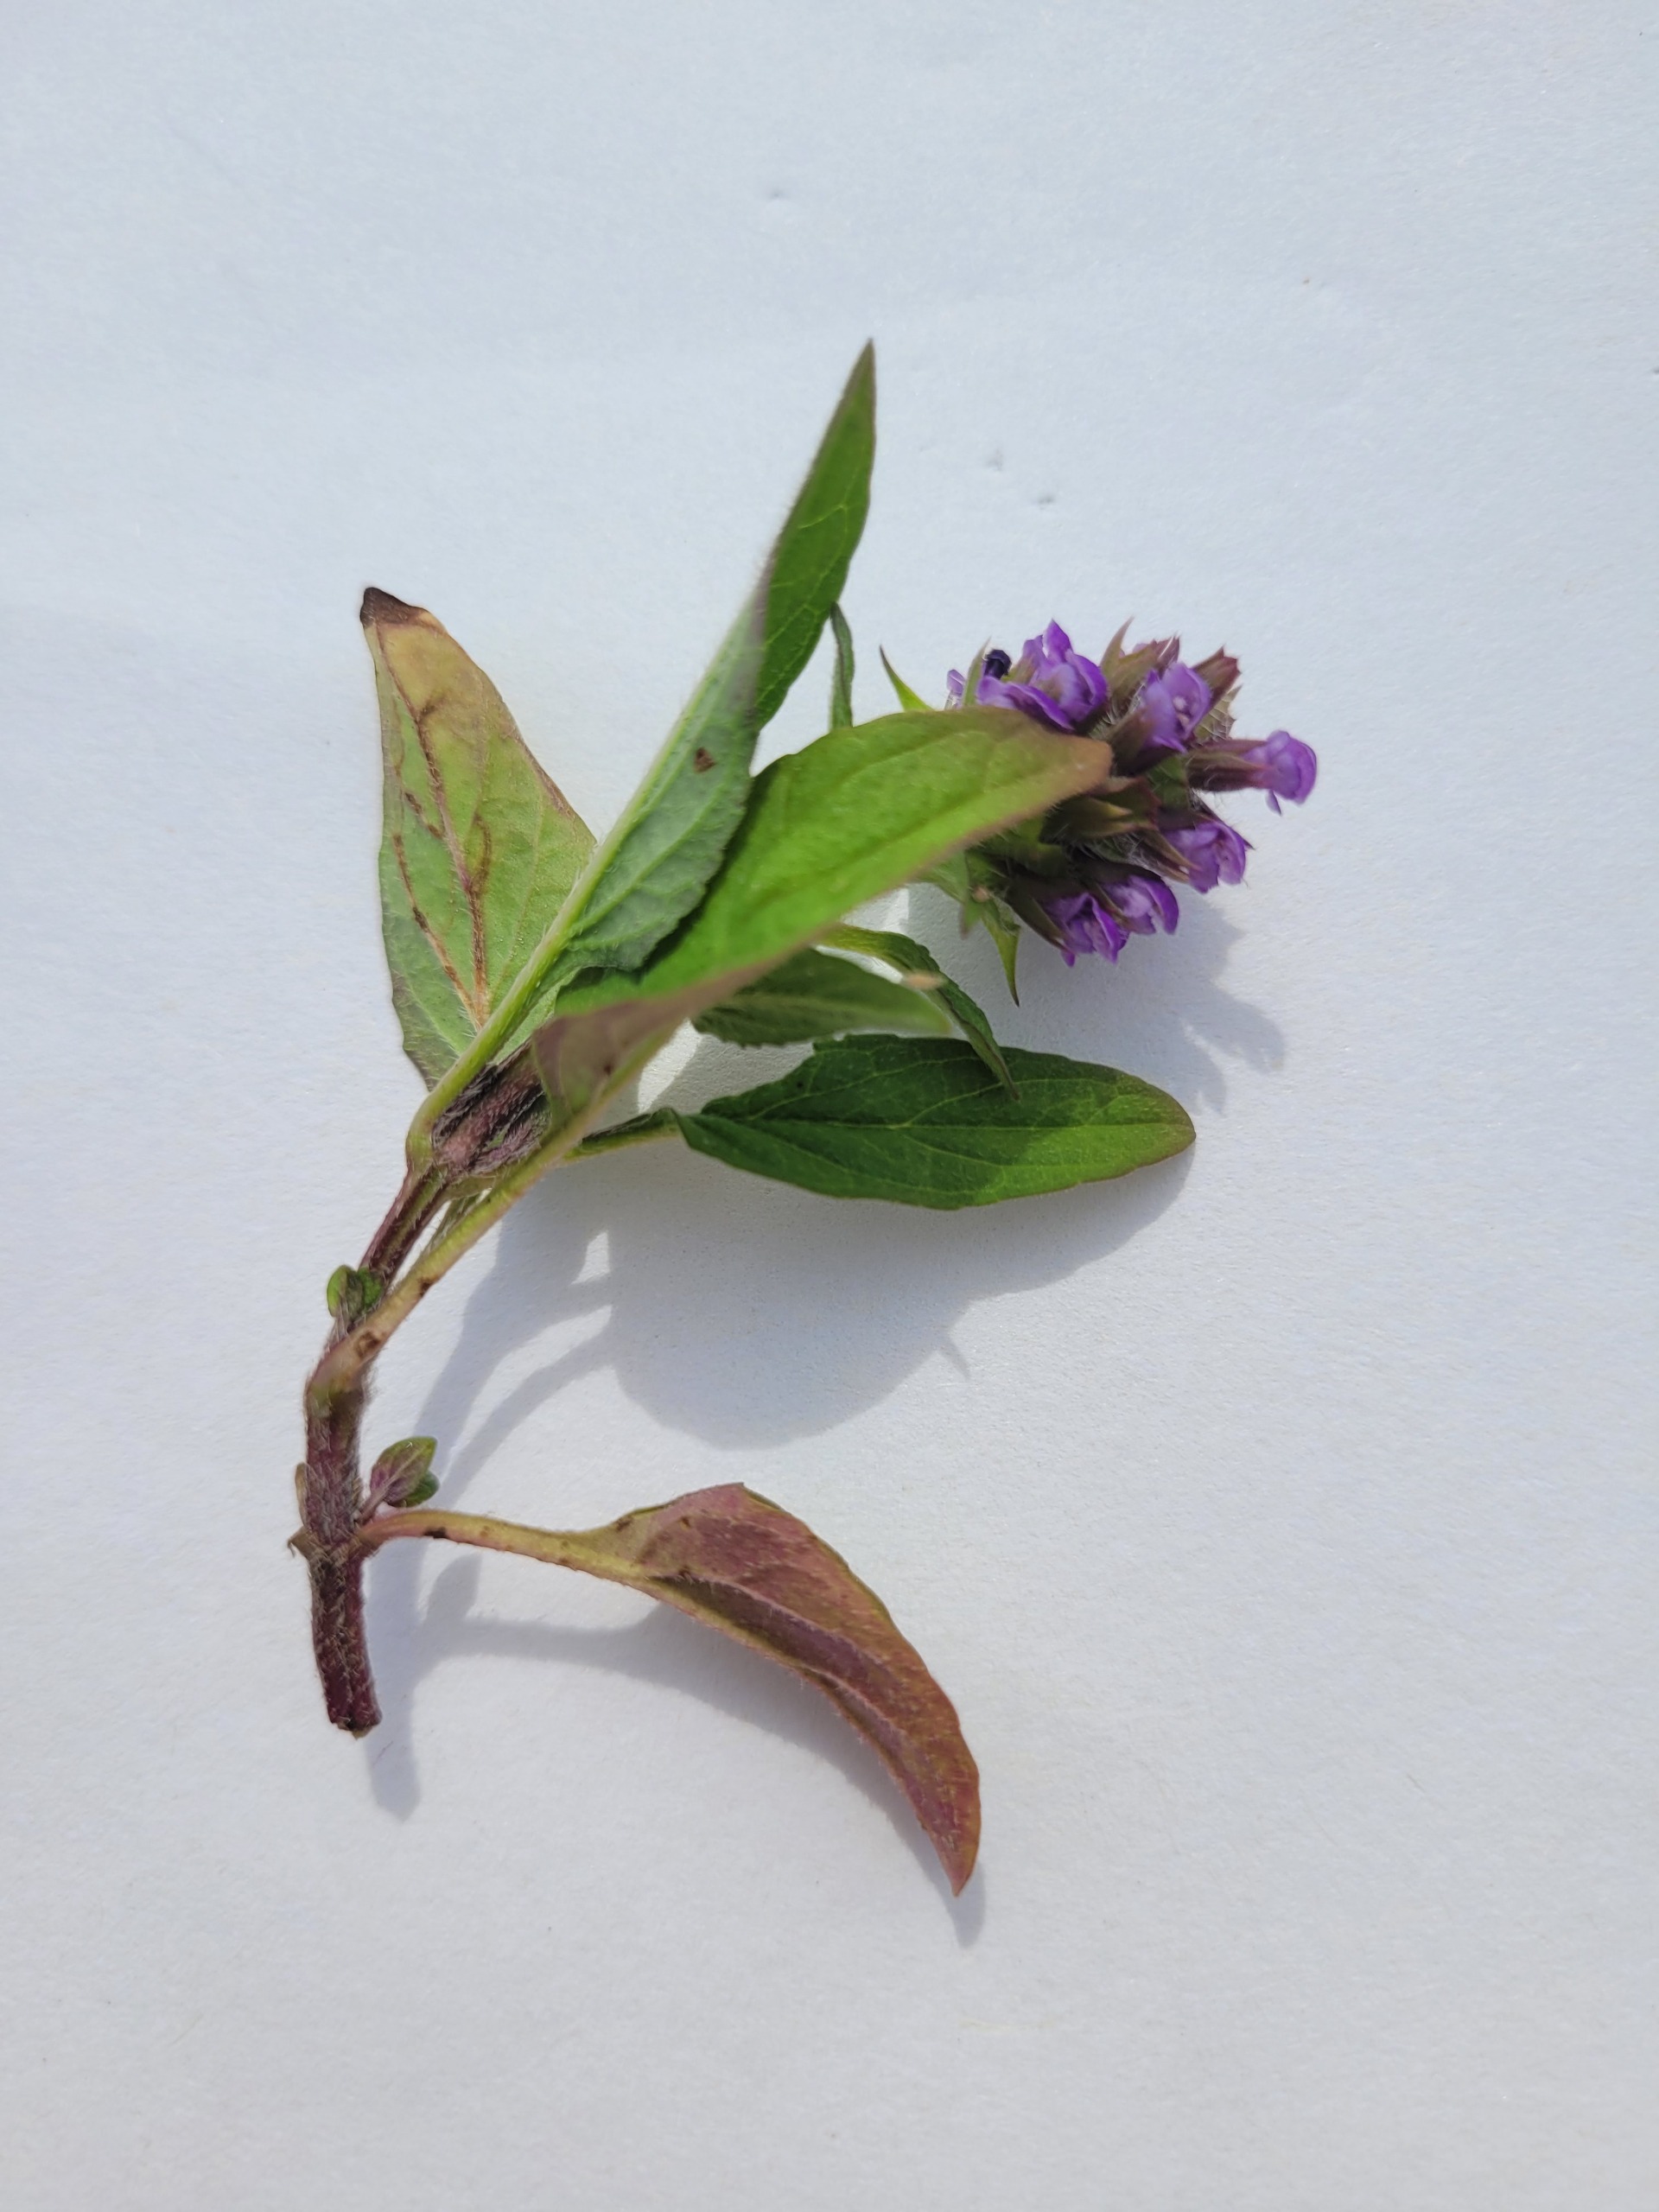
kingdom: Plantae
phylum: Tracheophyta
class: Magnoliopsida
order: Lamiales
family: Lamiaceae
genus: Prunella
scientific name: Prunella vulgaris
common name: Almindelig brunelle
